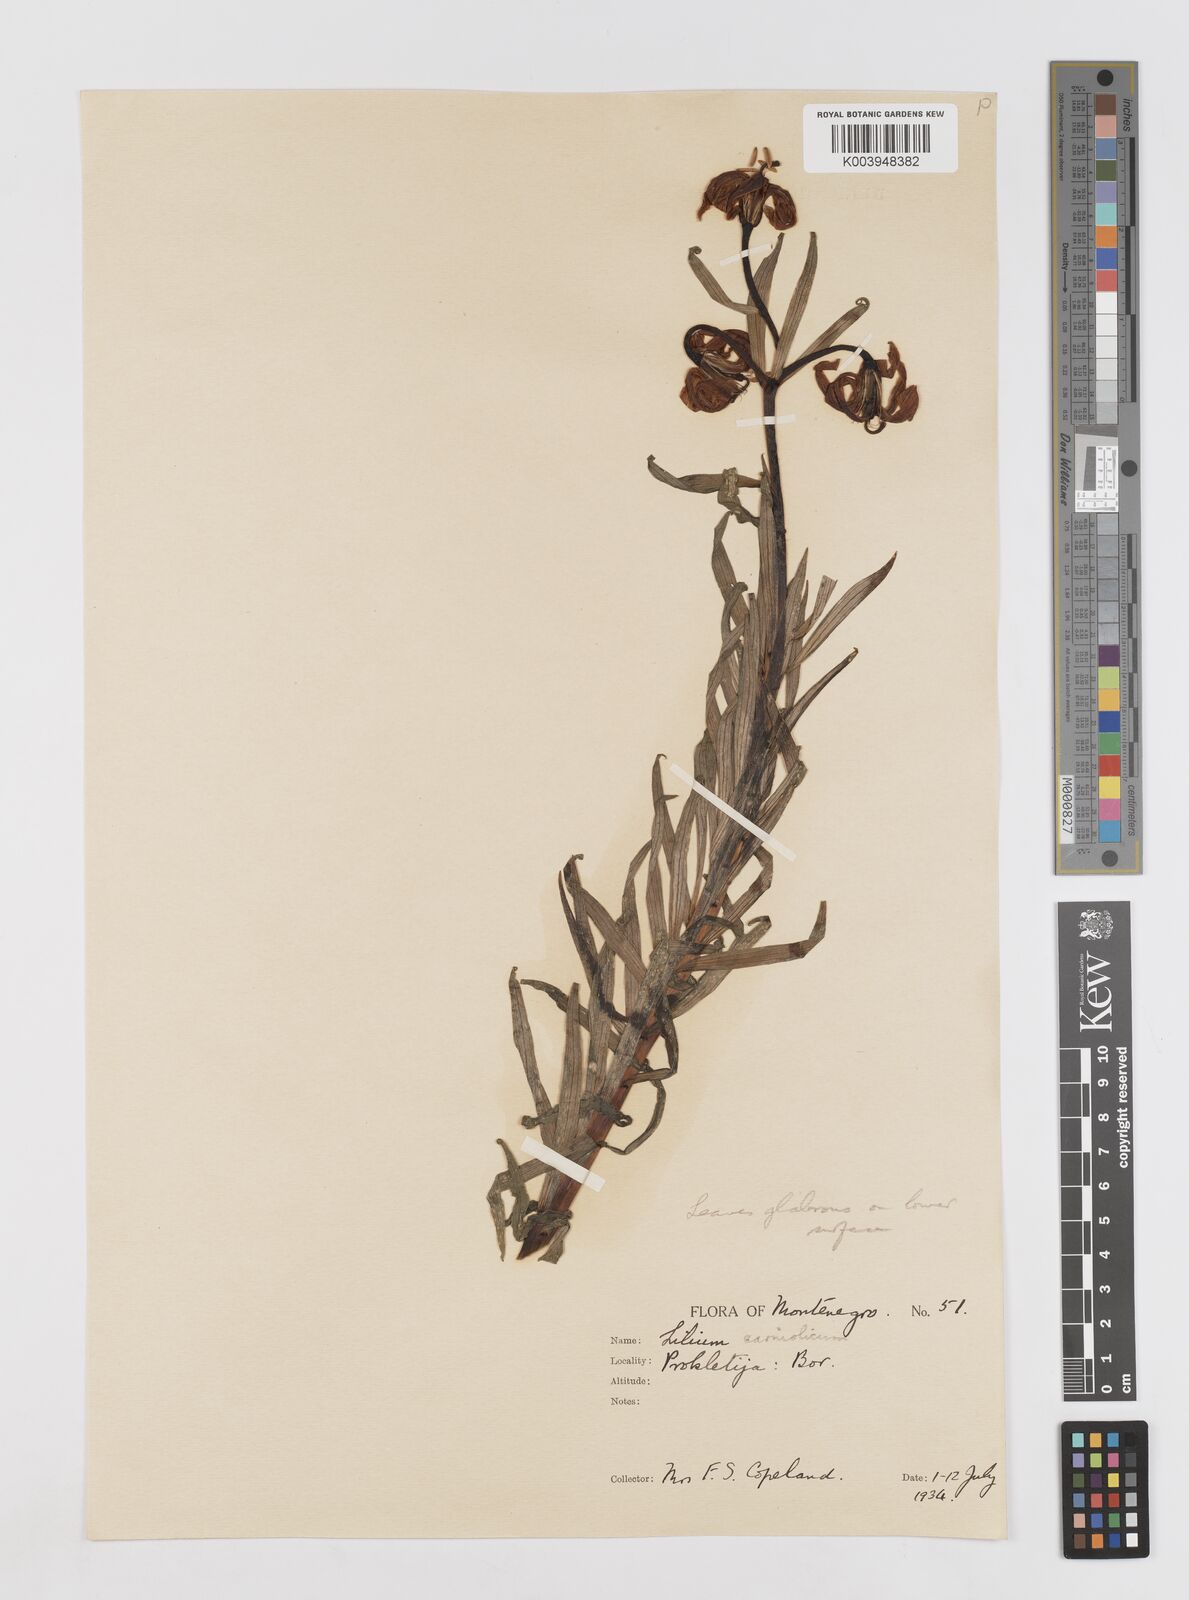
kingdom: Plantae
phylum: Tracheophyta
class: Liliopsida
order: Liliales
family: Liliaceae
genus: Lilium
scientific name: Lilium
